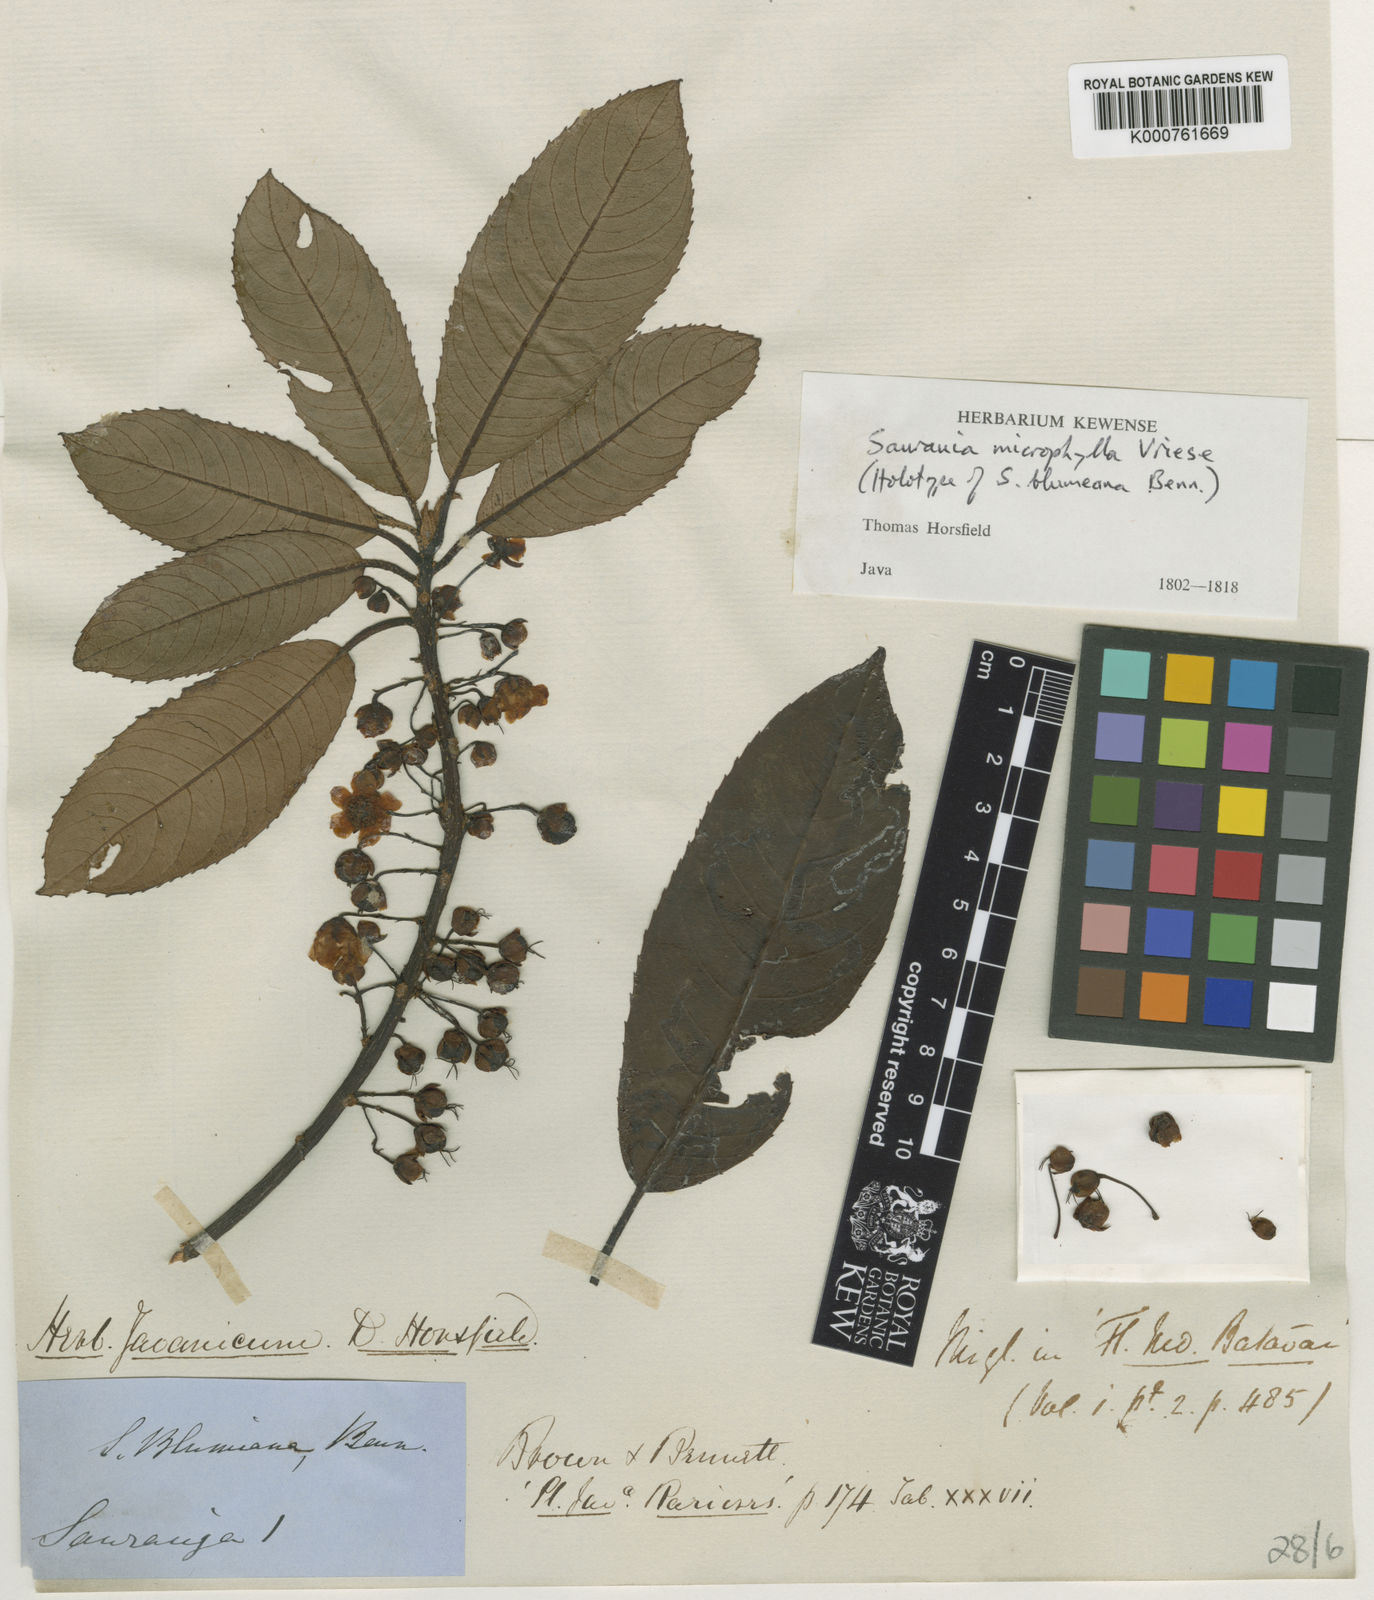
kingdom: Plantae
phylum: Tracheophyta
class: Magnoliopsida
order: Ericales
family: Actinidiaceae
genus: Saurauia
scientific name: Saurauia microphylla
